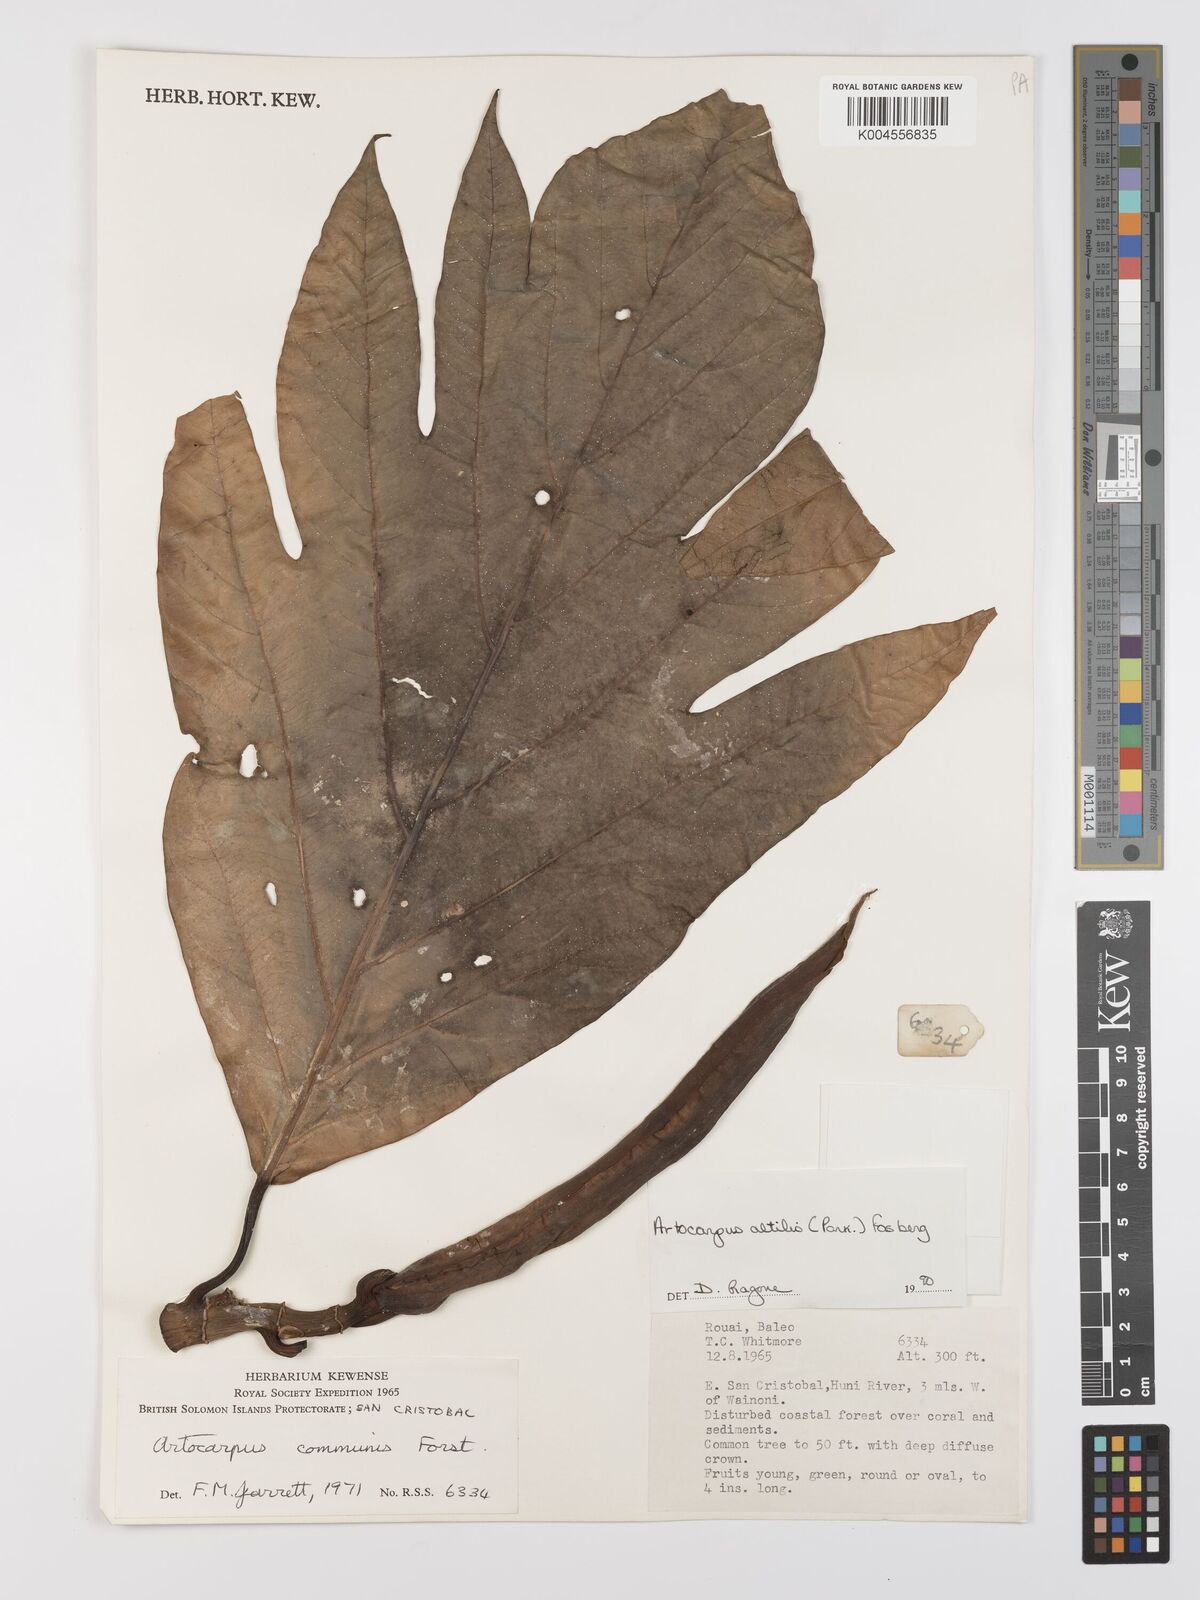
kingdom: Plantae
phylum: Tracheophyta
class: Magnoliopsida
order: Rosales
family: Moraceae
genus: Artocarpus
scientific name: Artocarpus altilis
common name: Breadfruit
